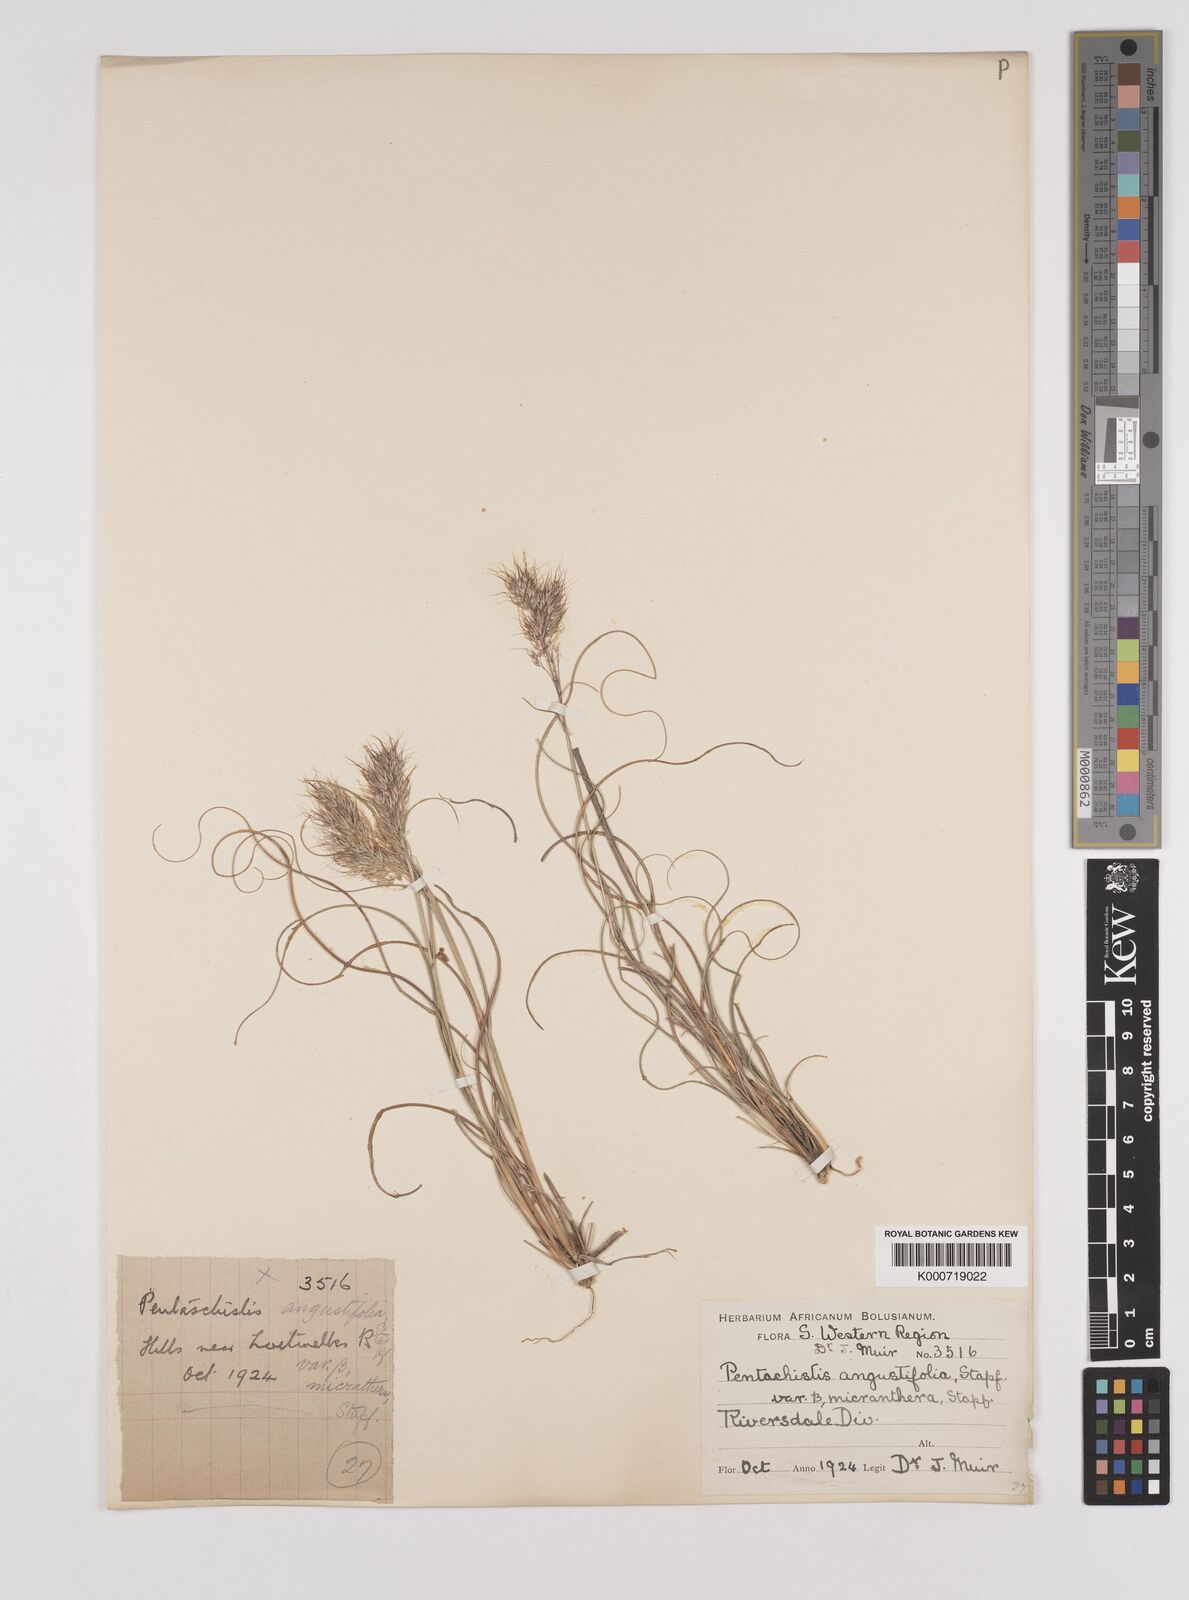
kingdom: Plantae
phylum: Tracheophyta
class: Liliopsida
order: Poales
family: Poaceae
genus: Pentameris
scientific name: Pentameris pallida
